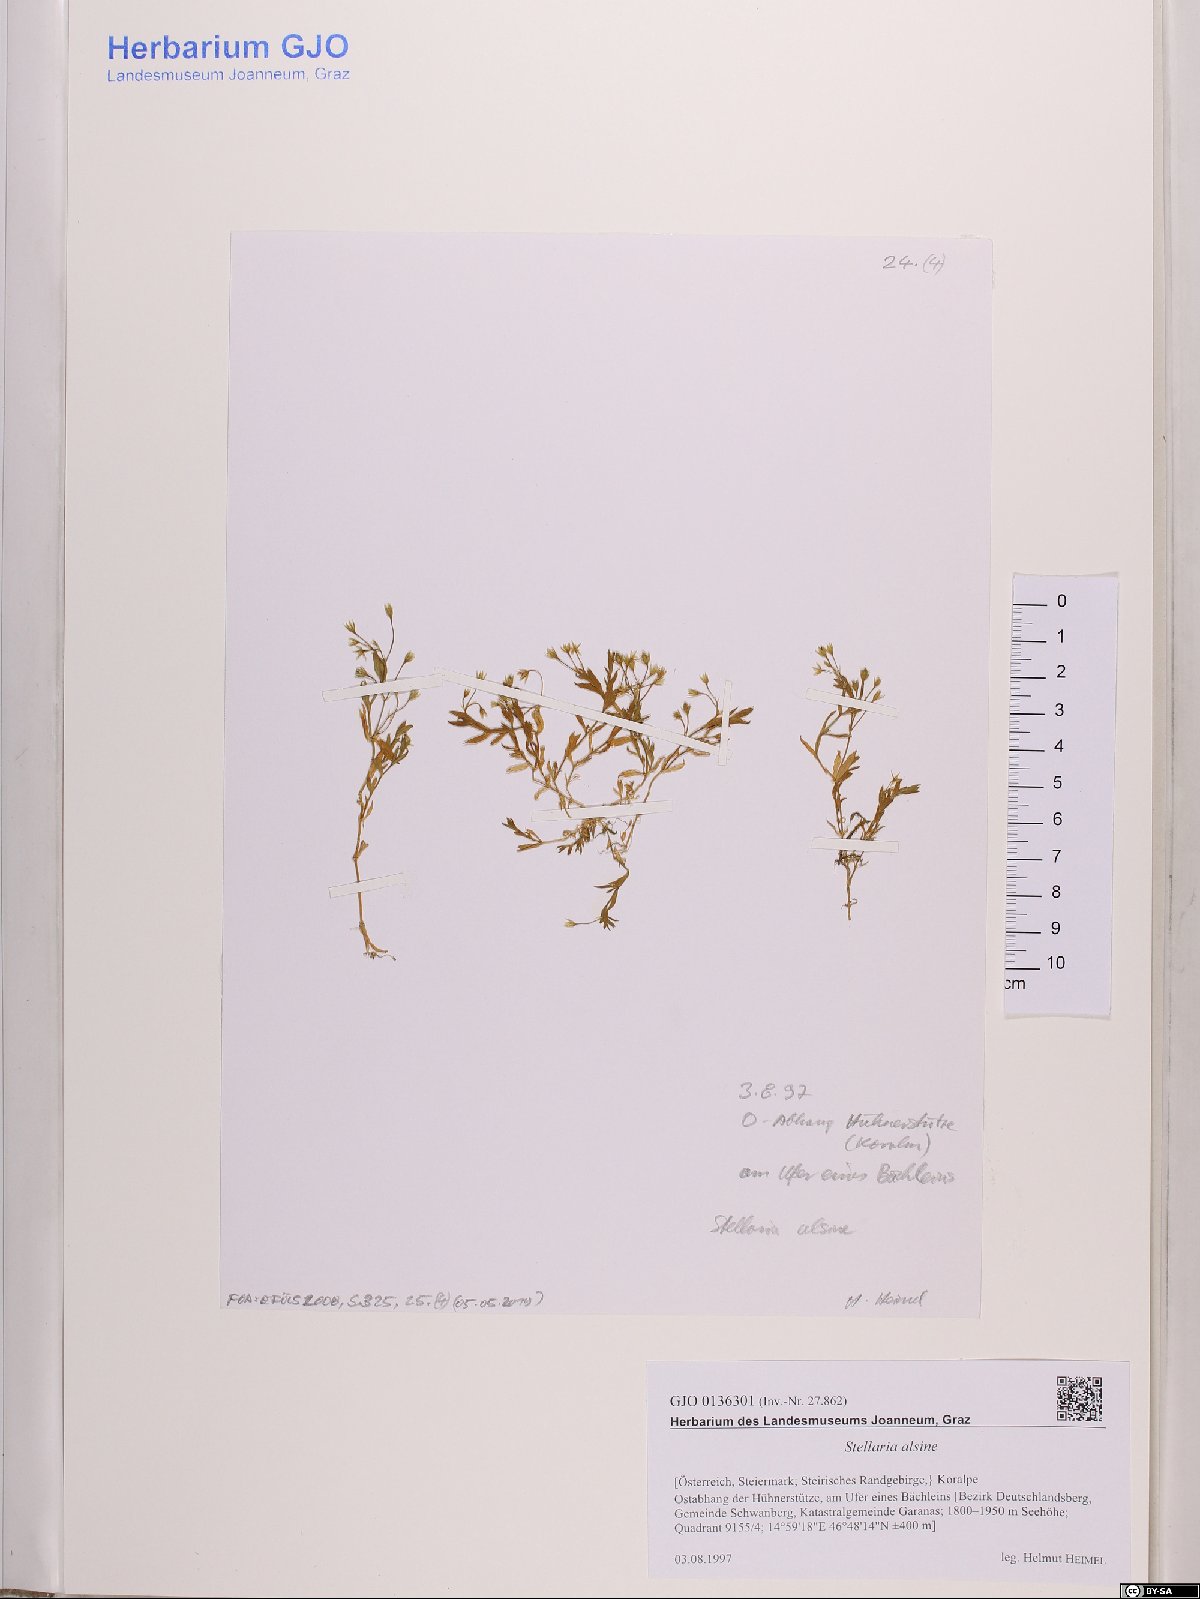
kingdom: Plantae
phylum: Tracheophyta
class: Magnoliopsida
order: Caryophyllales
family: Caryophyllaceae
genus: Stellaria
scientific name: Stellaria alsine
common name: Bog stitchwort
